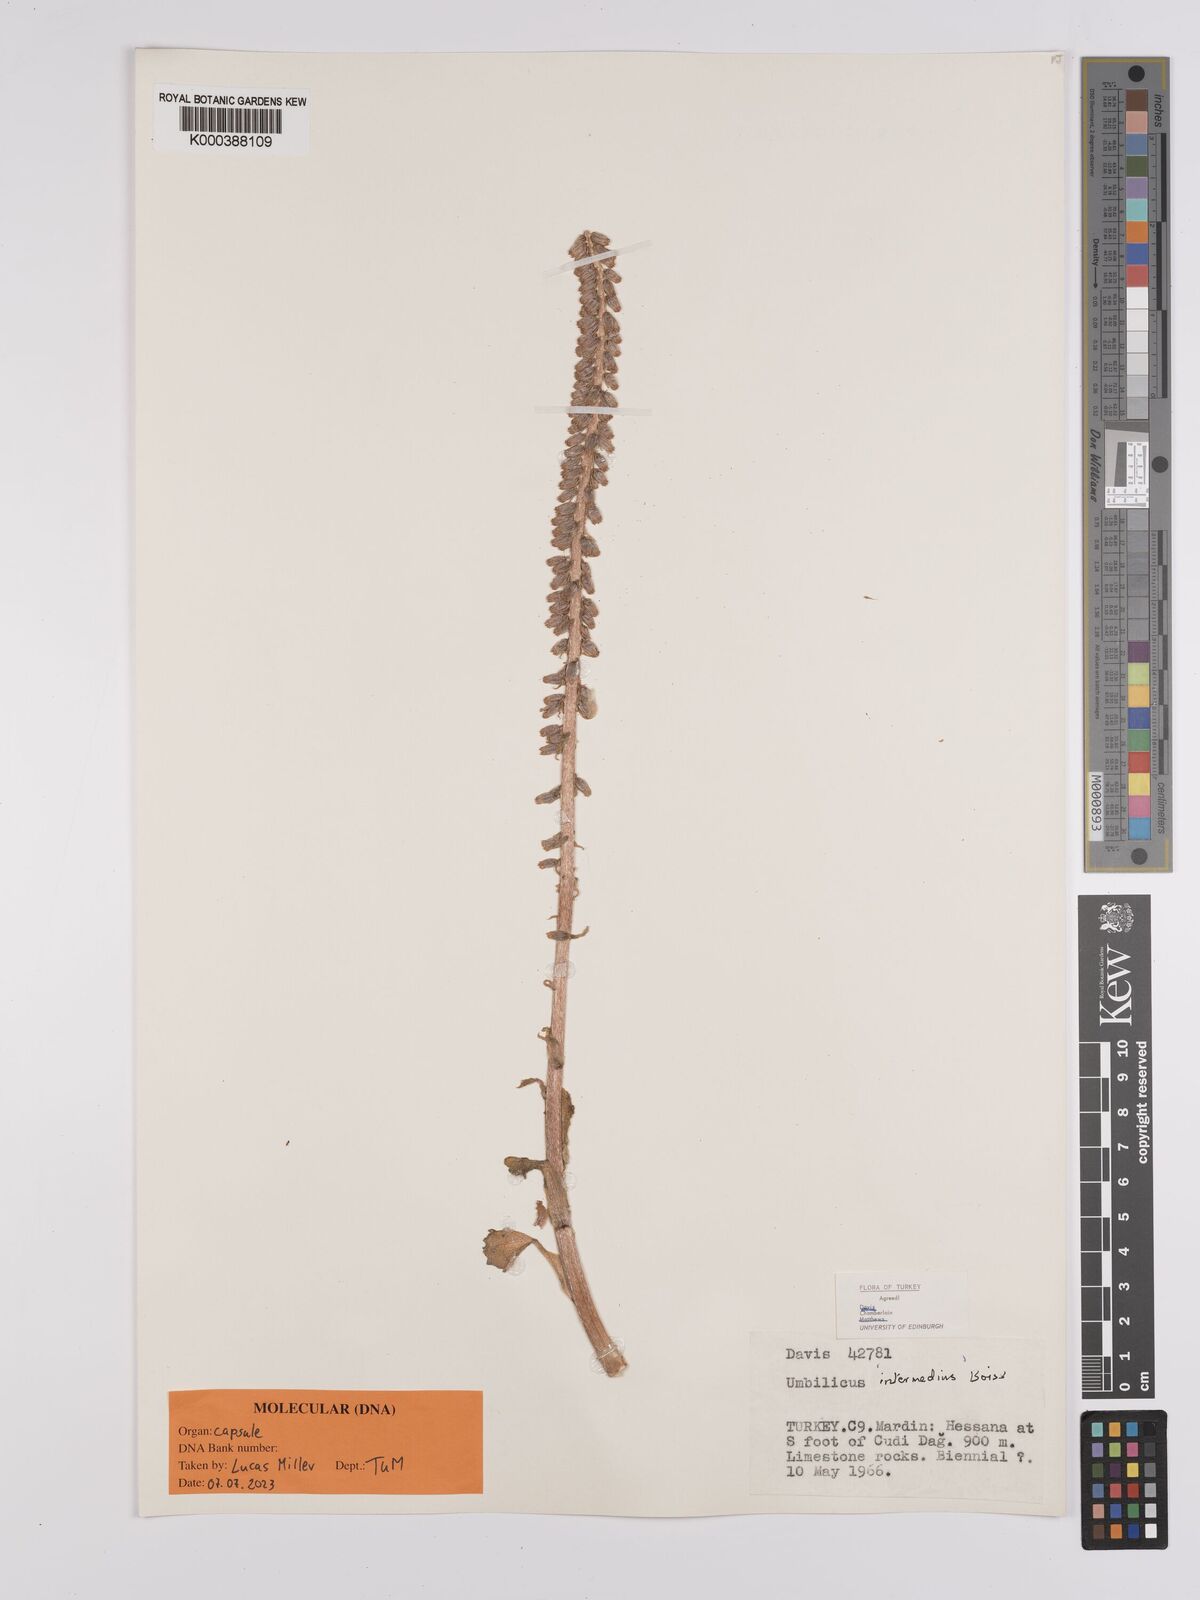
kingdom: Plantae
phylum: Tracheophyta
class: Magnoliopsida
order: Saxifragales
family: Crassulaceae
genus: Umbilicus
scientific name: Umbilicus horizontalis
